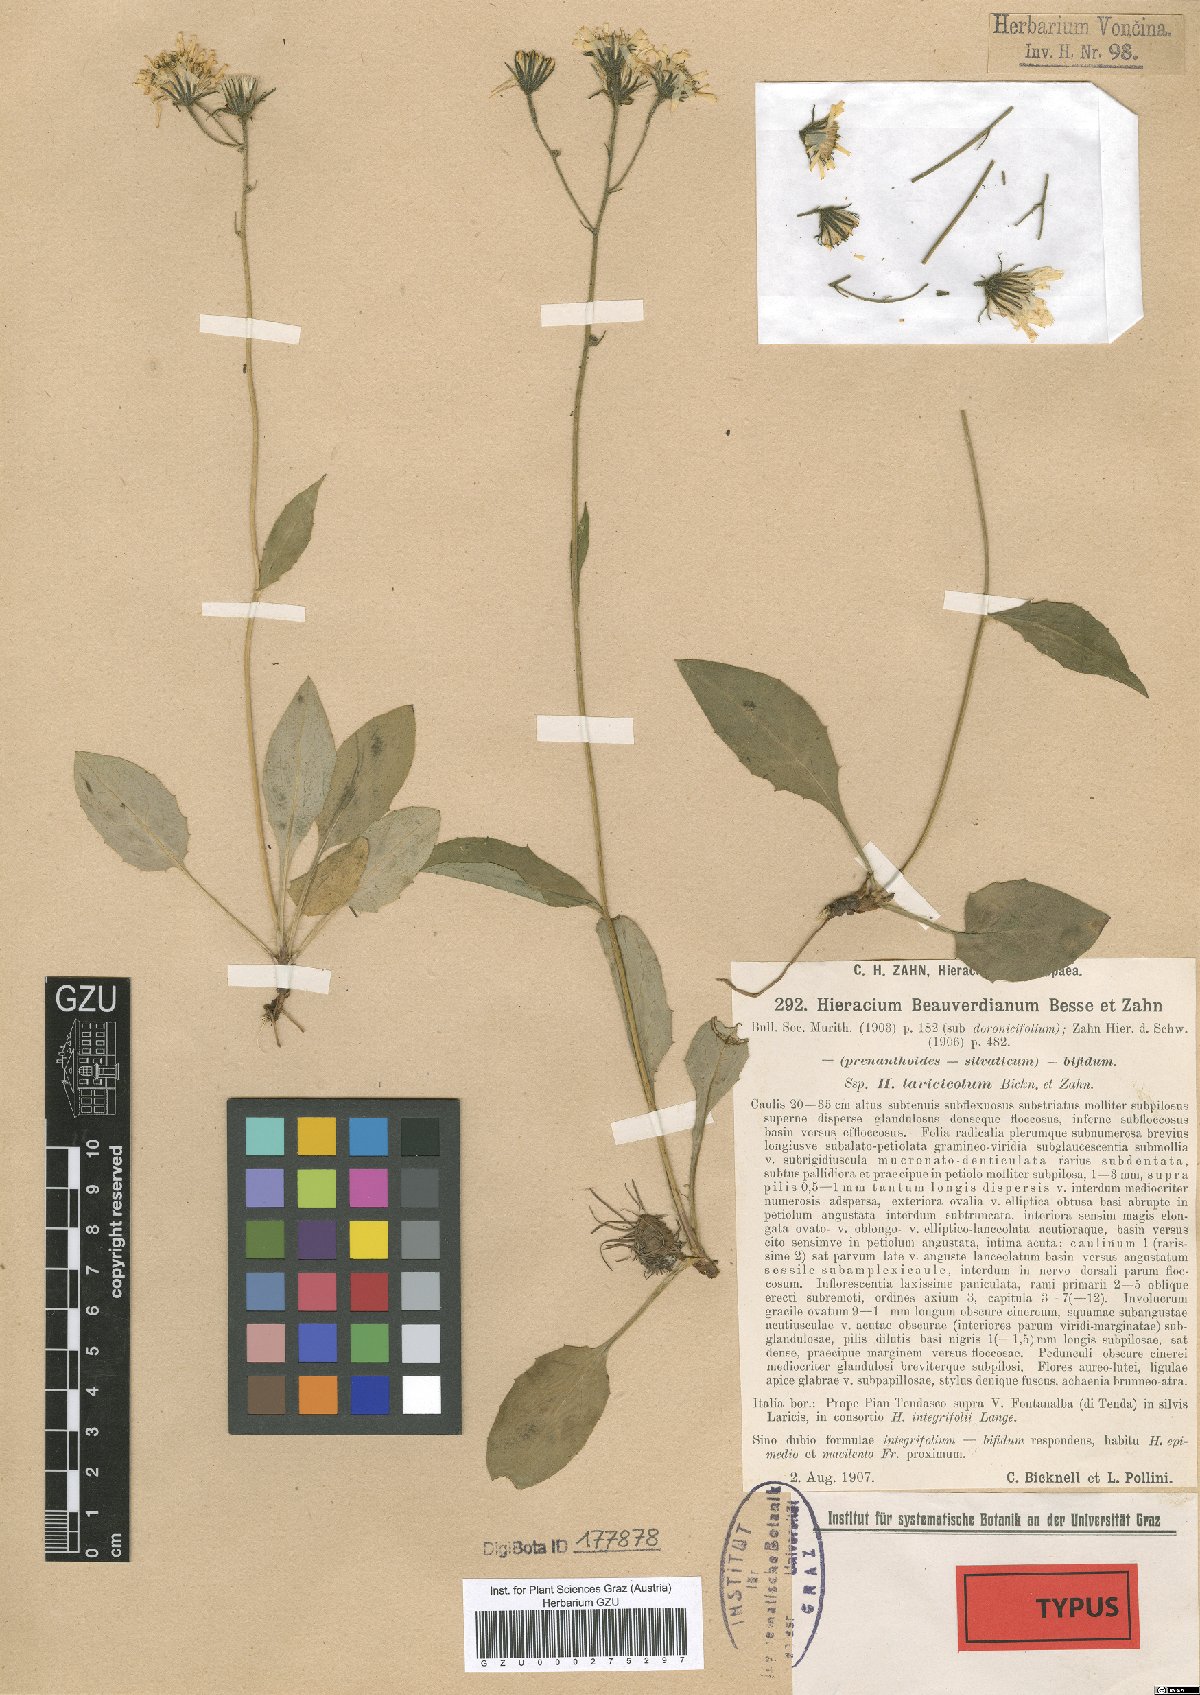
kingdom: Plantae
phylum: Tracheophyta
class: Magnoliopsida
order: Asterales
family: Asteraceae
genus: Hieracium
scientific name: Hieracium froelichianum
